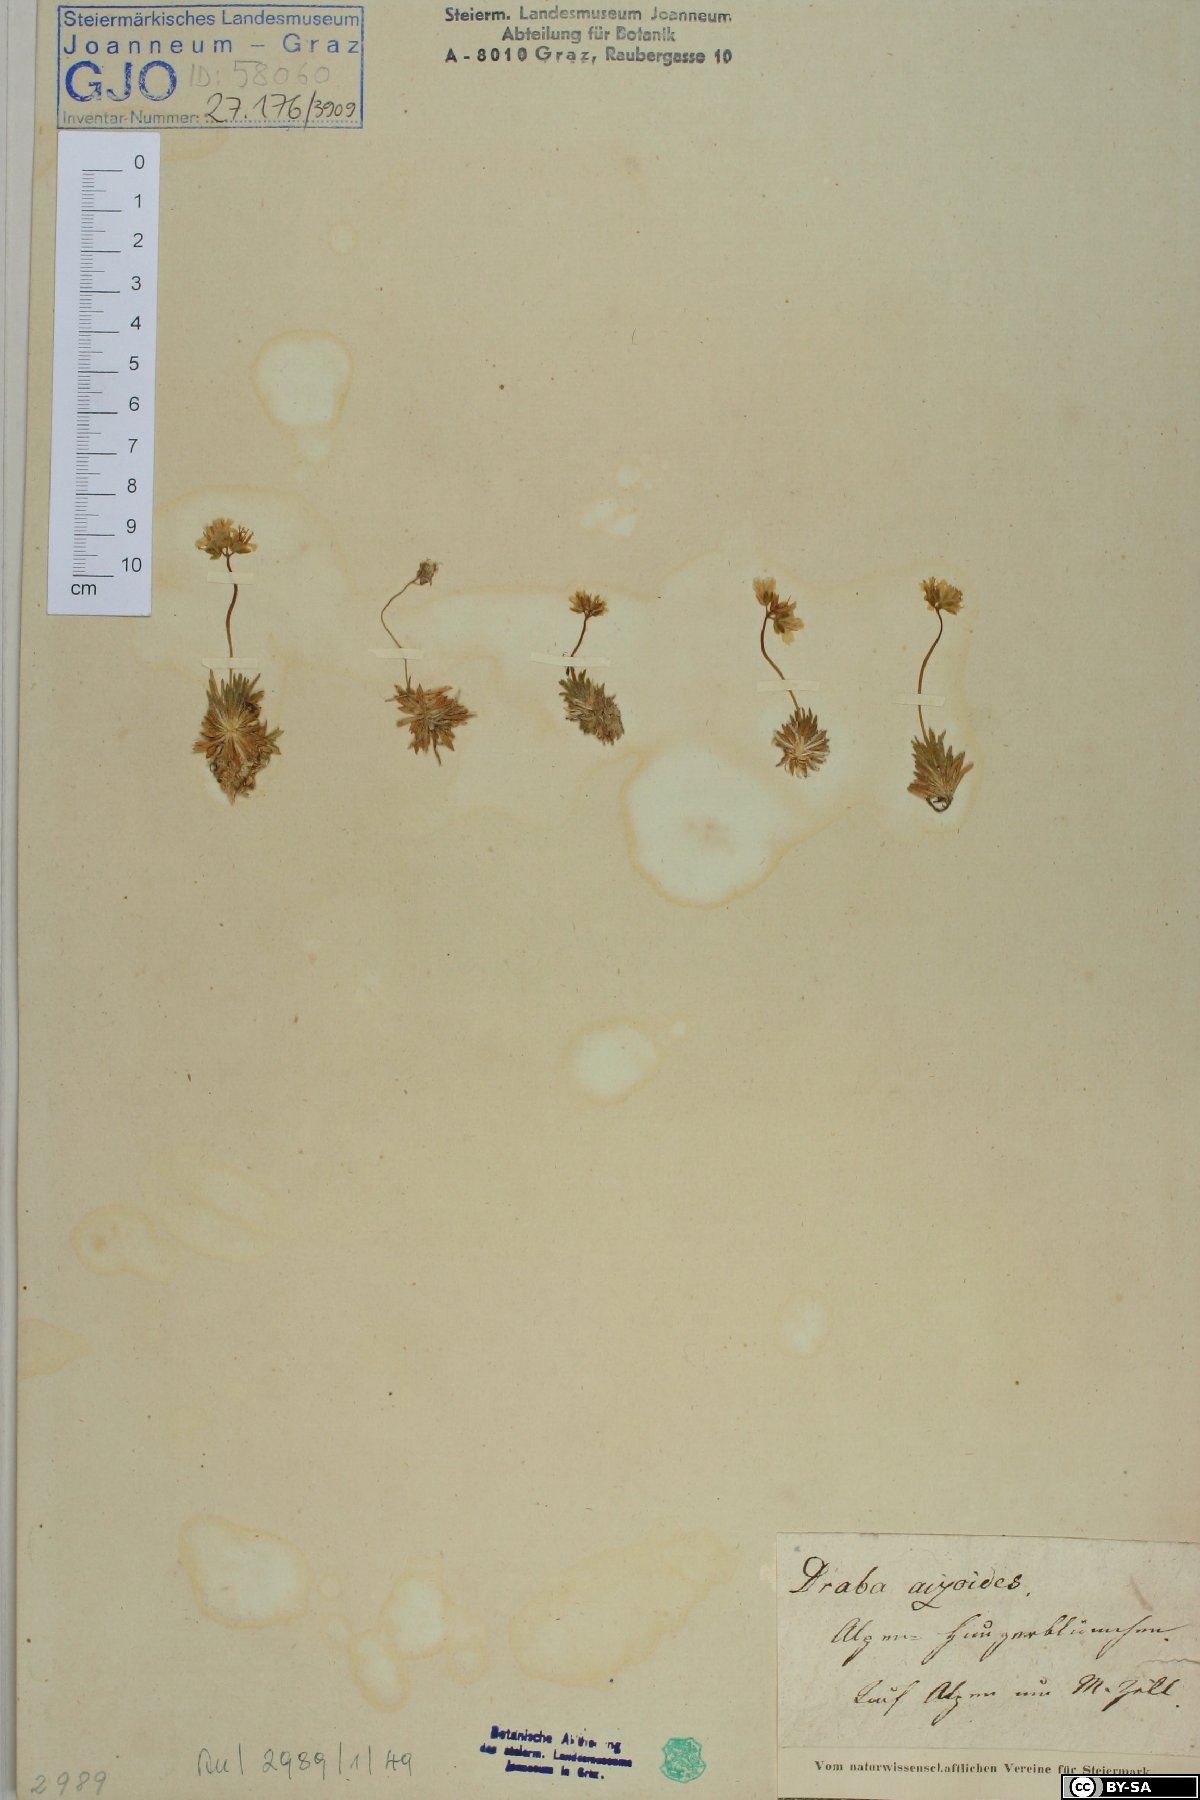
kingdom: Plantae
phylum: Tracheophyta
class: Magnoliopsida
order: Brassicales
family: Brassicaceae
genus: Draba
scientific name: Draba aizoides
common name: Yellow whitlowgrass
